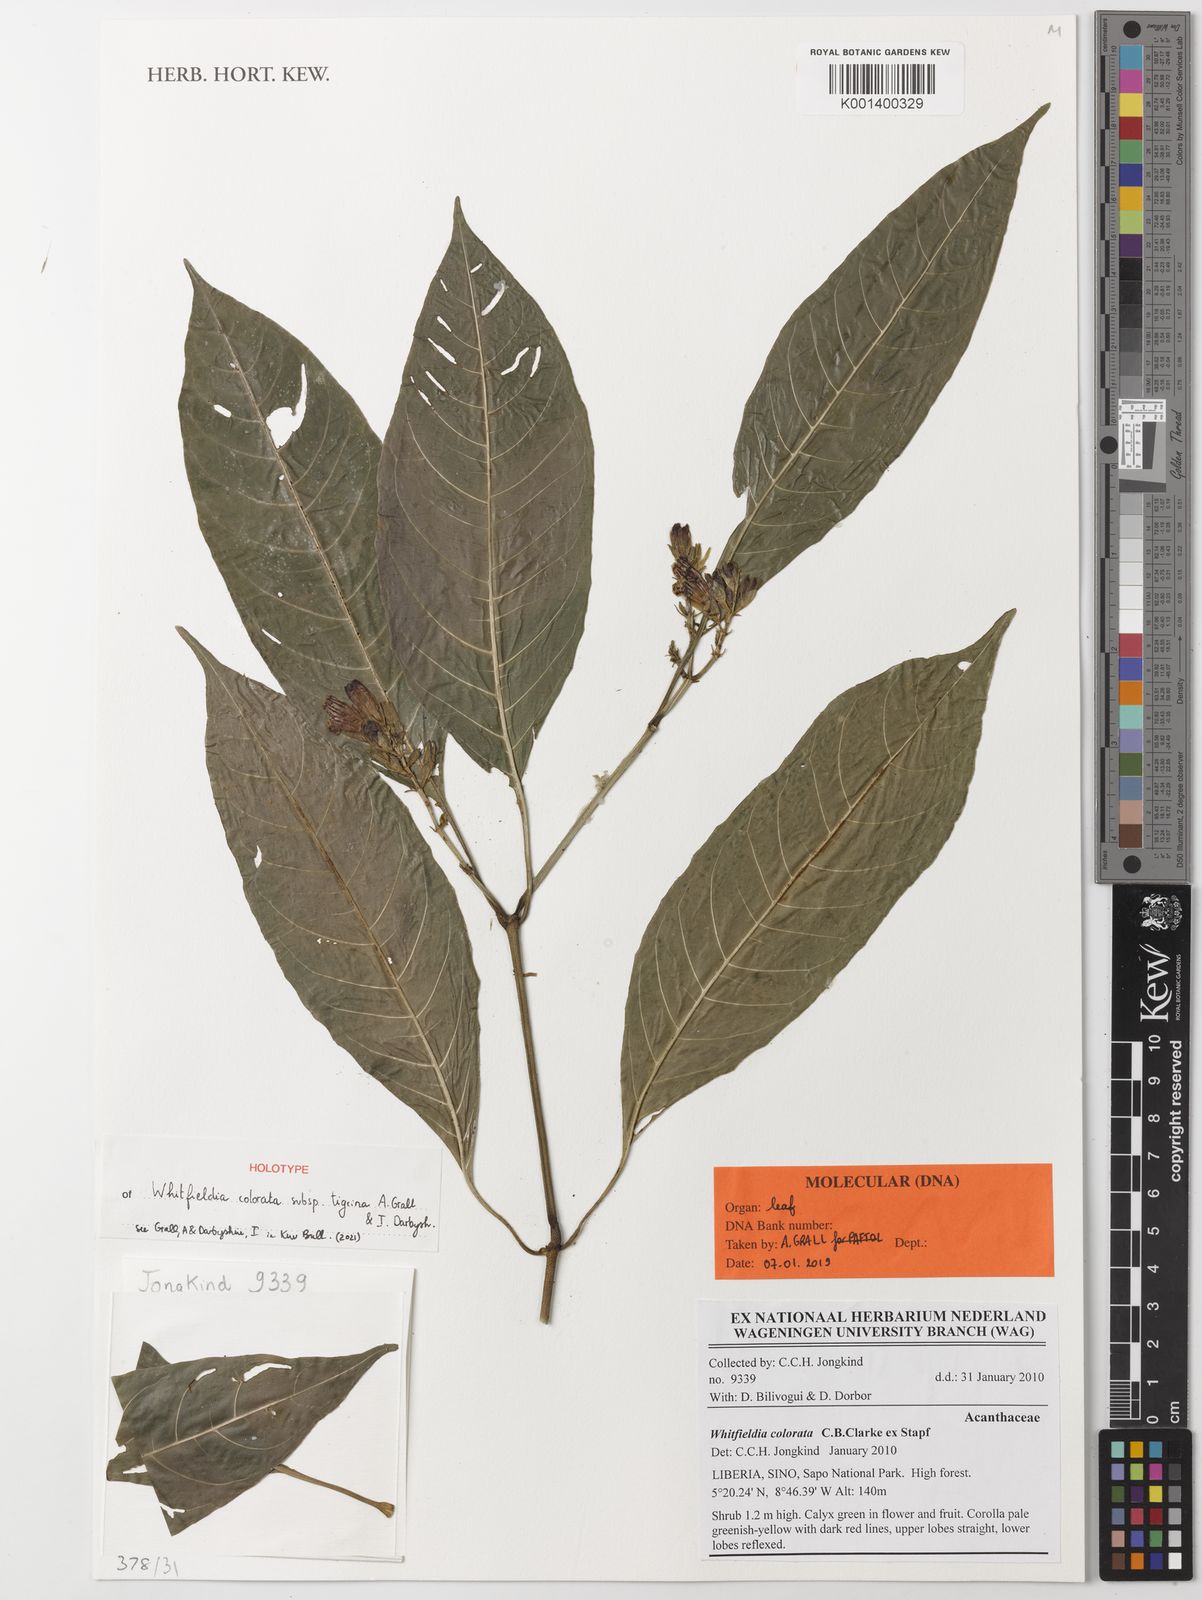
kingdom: Plantae
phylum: Tracheophyta
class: Magnoliopsida
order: Lamiales
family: Acanthaceae
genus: Whitfieldia
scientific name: Whitfieldia colorata
